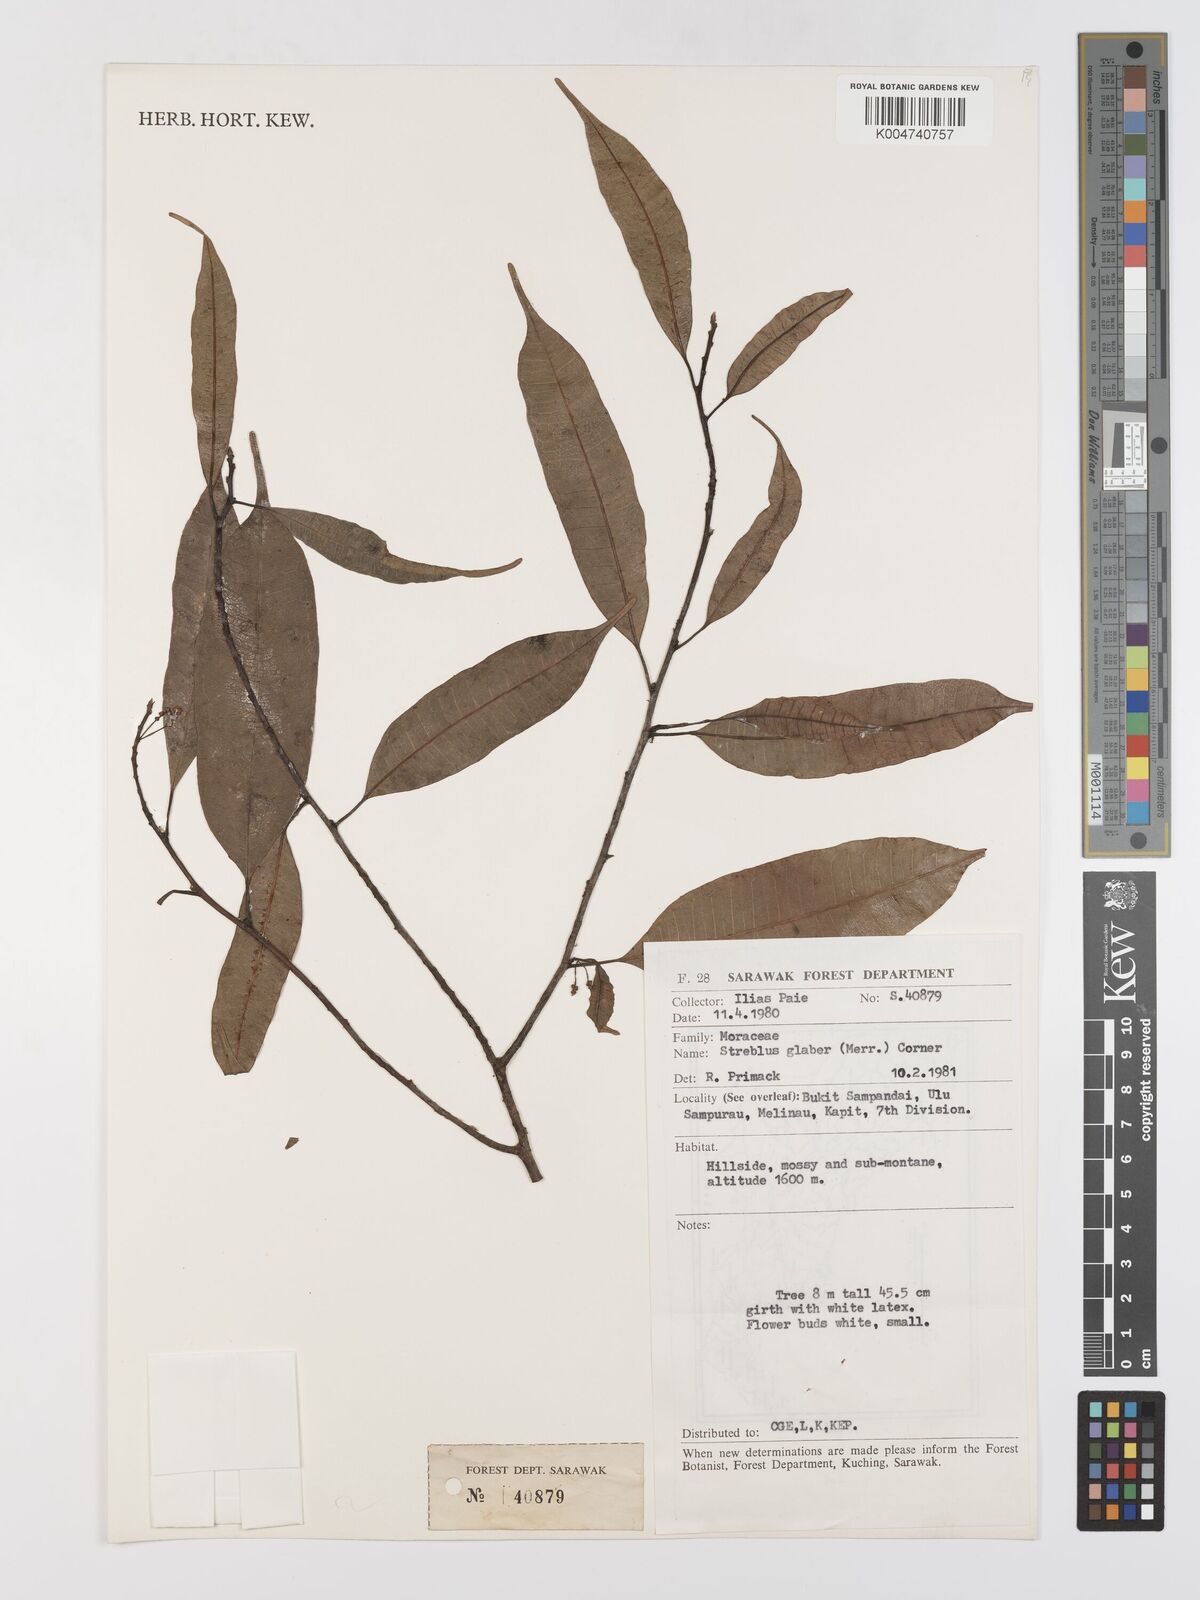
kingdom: Plantae
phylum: Tracheophyta
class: Magnoliopsida
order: Rosales
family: Moraceae
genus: Paratrophis
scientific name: Paratrophis glabra
